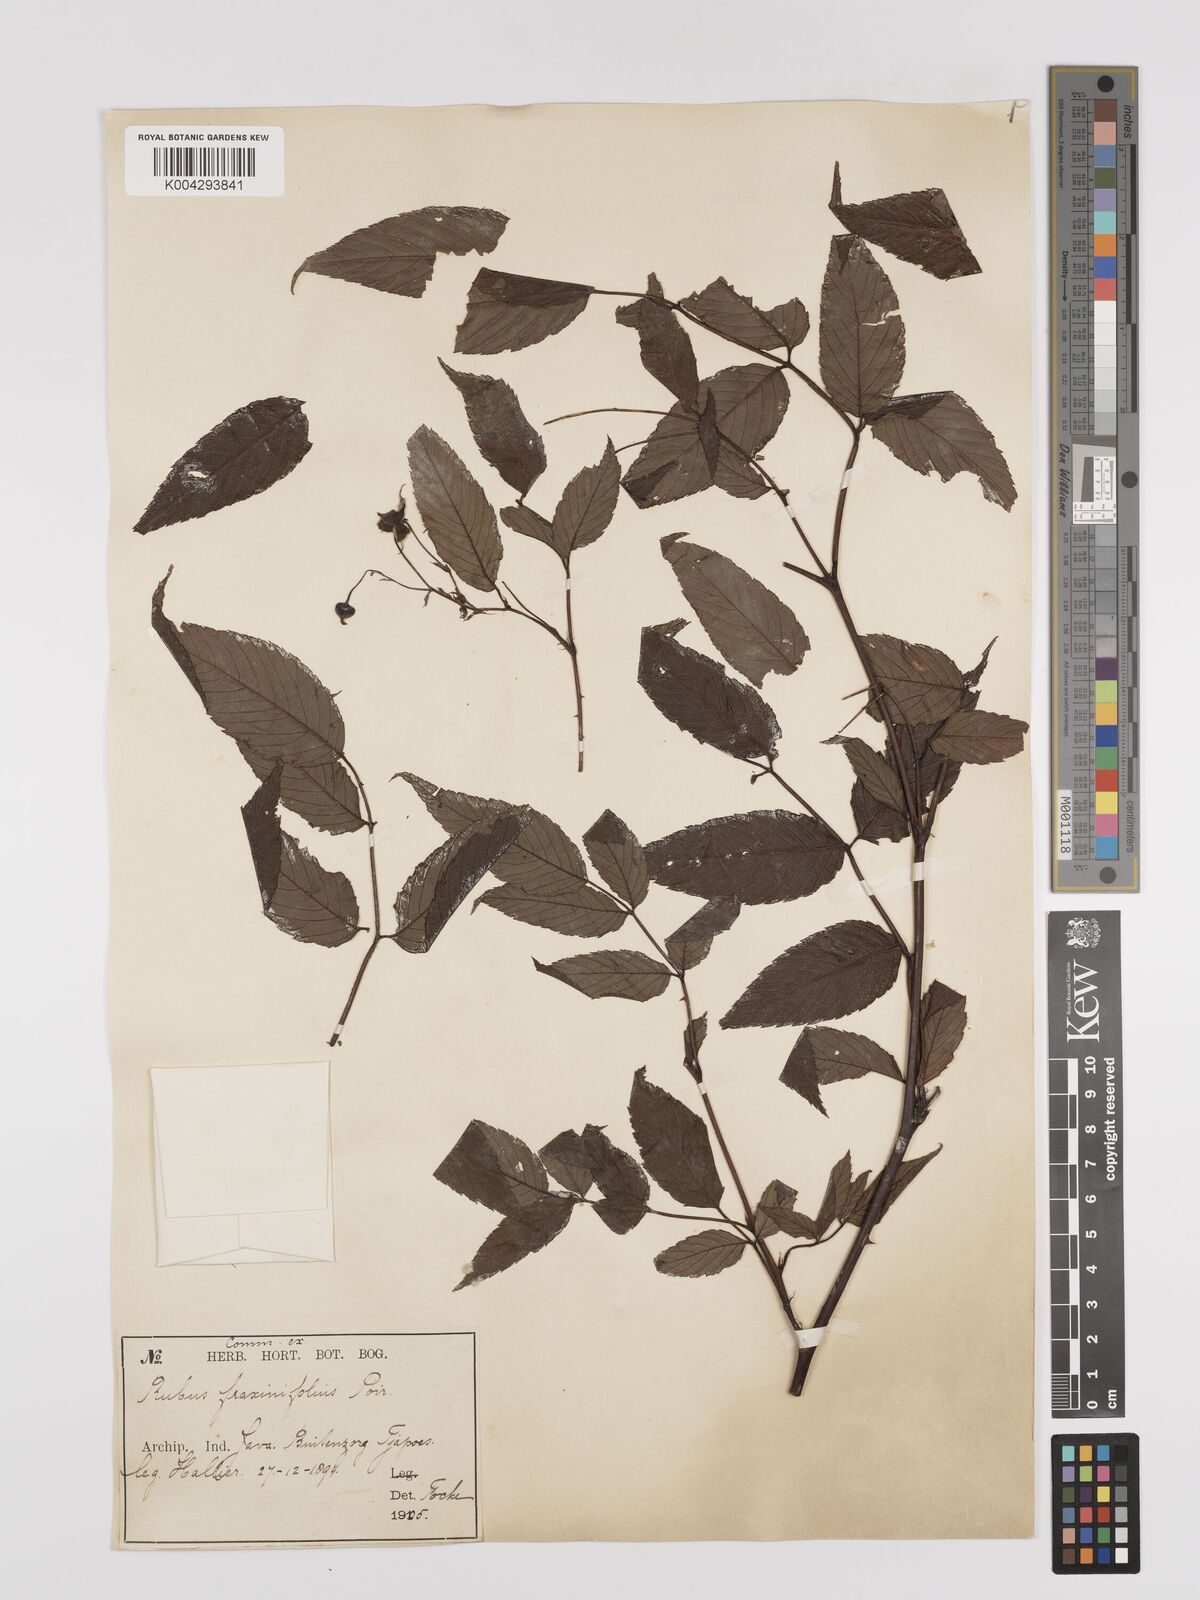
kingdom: Plantae
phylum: Tracheophyta
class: Magnoliopsida
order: Rosales
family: Rosaceae
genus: Rubus
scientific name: Rubus fraxinifolius
